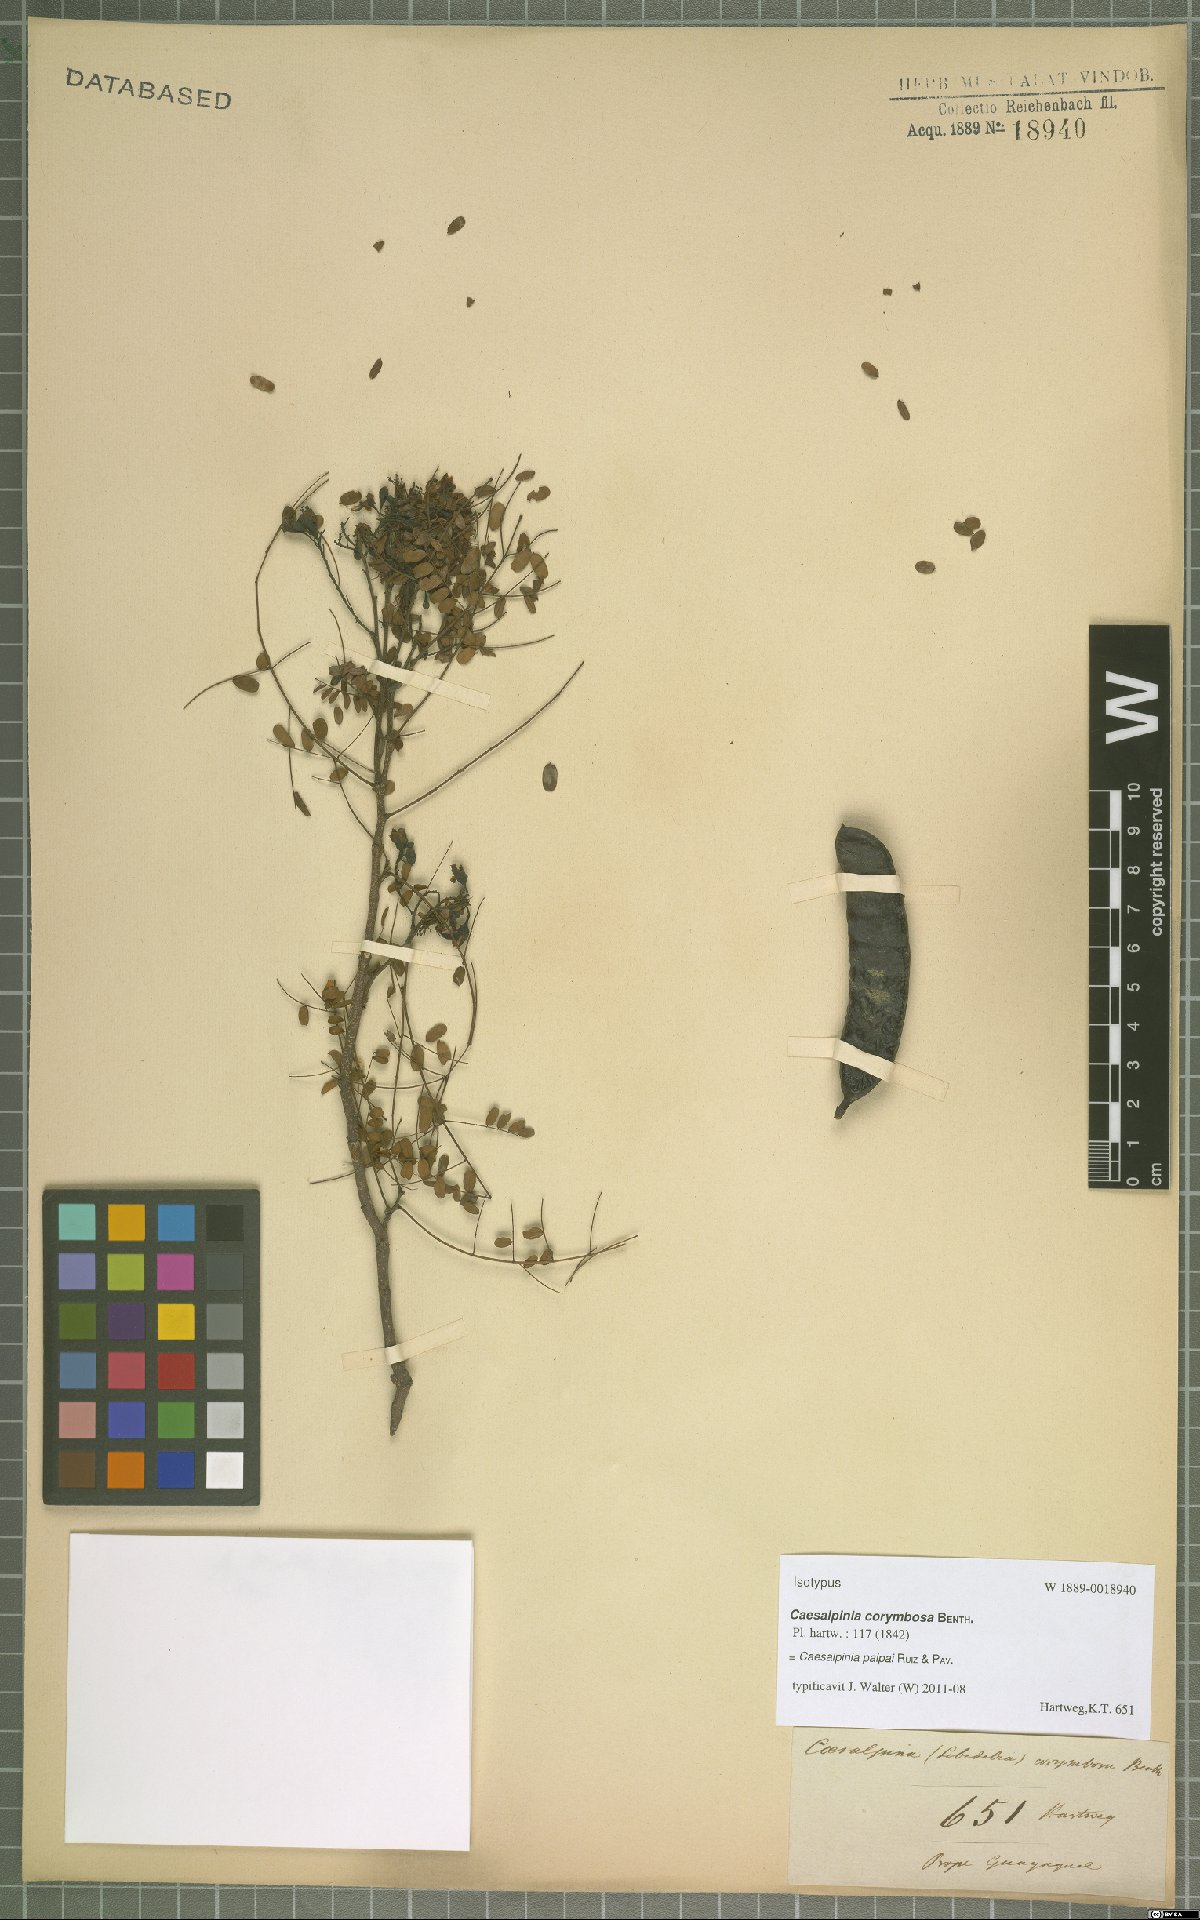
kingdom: Plantae
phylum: Tracheophyta
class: Magnoliopsida
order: Fabales
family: Fabaceae
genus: Libidibia
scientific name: Libidibia glabrata
